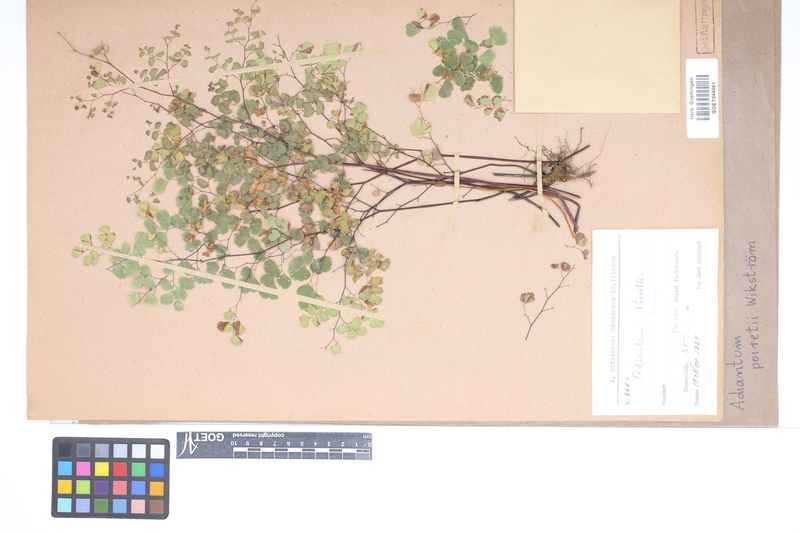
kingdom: Plantae
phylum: Tracheophyta
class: Polypodiopsida
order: Polypodiales
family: Pteridaceae
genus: Adiantum
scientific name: Adiantum poiretii
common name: Mexican maidenhair
